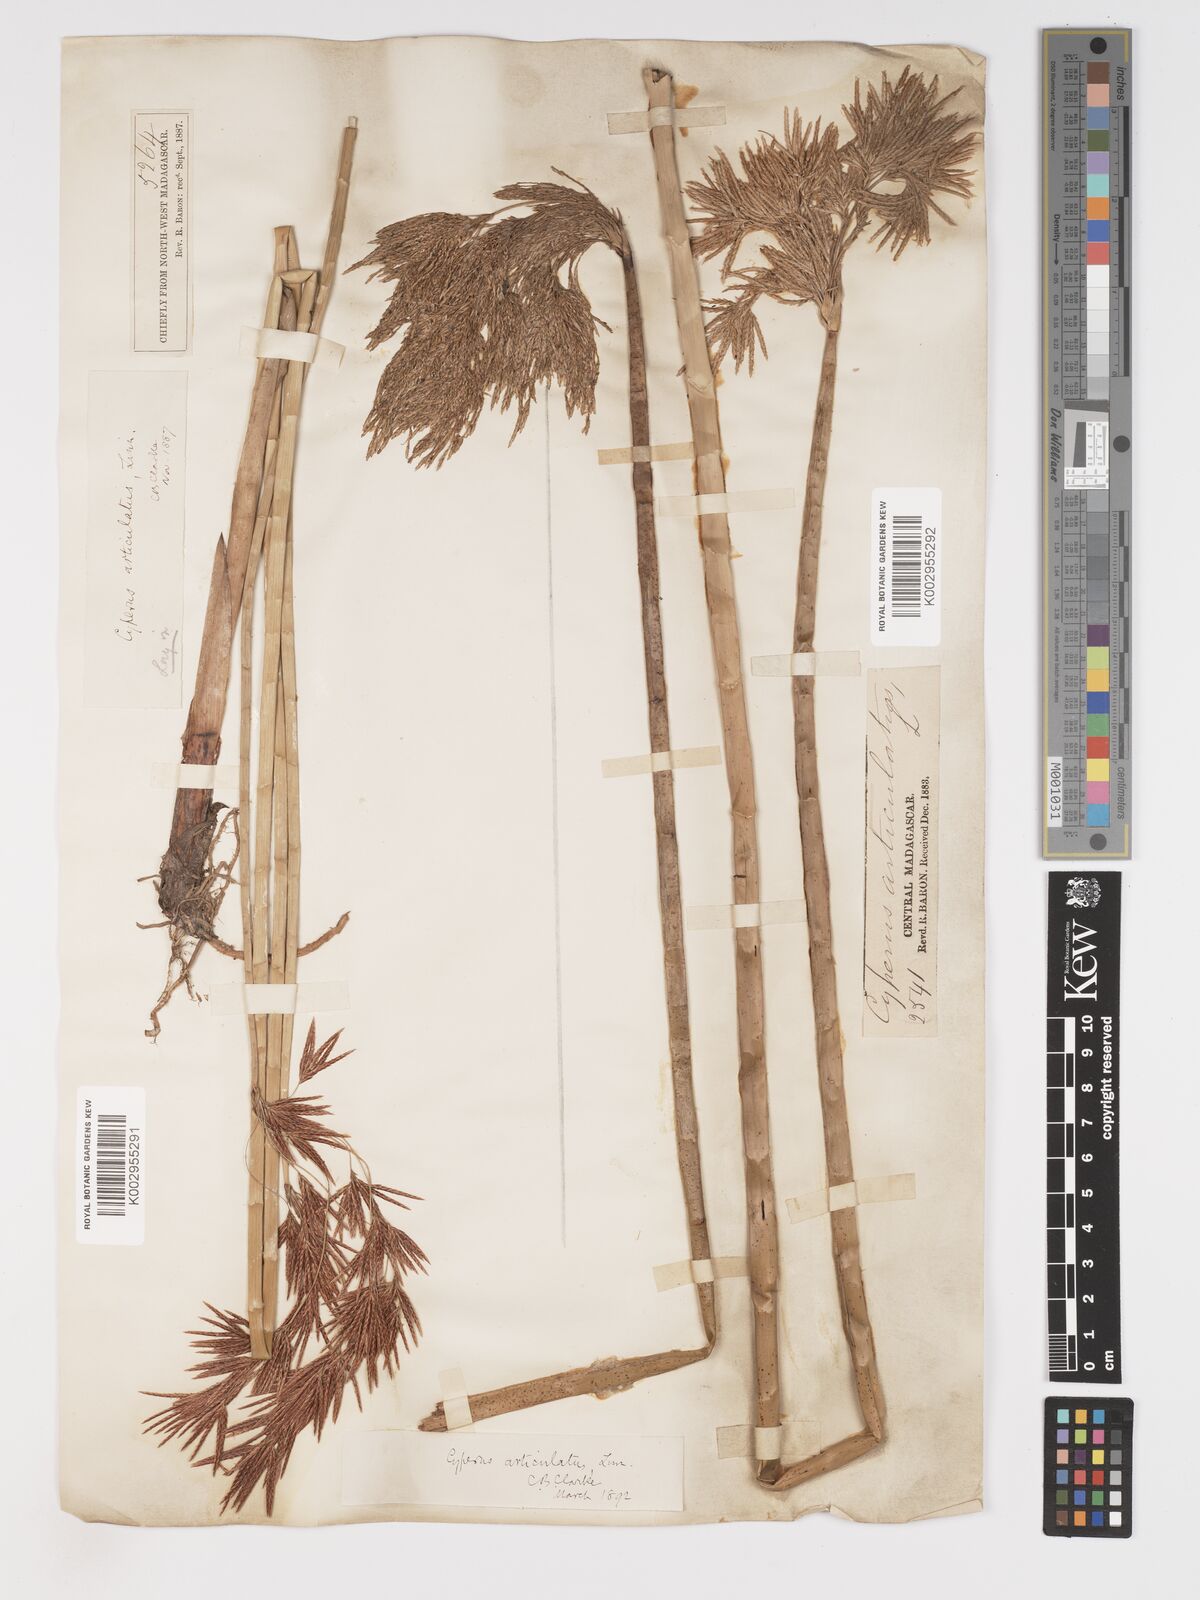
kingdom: Plantae
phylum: Tracheophyta
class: Liliopsida
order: Poales
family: Cyperaceae
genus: Cyperus
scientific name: Cyperus articulatus
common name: Jointed flatsedge
